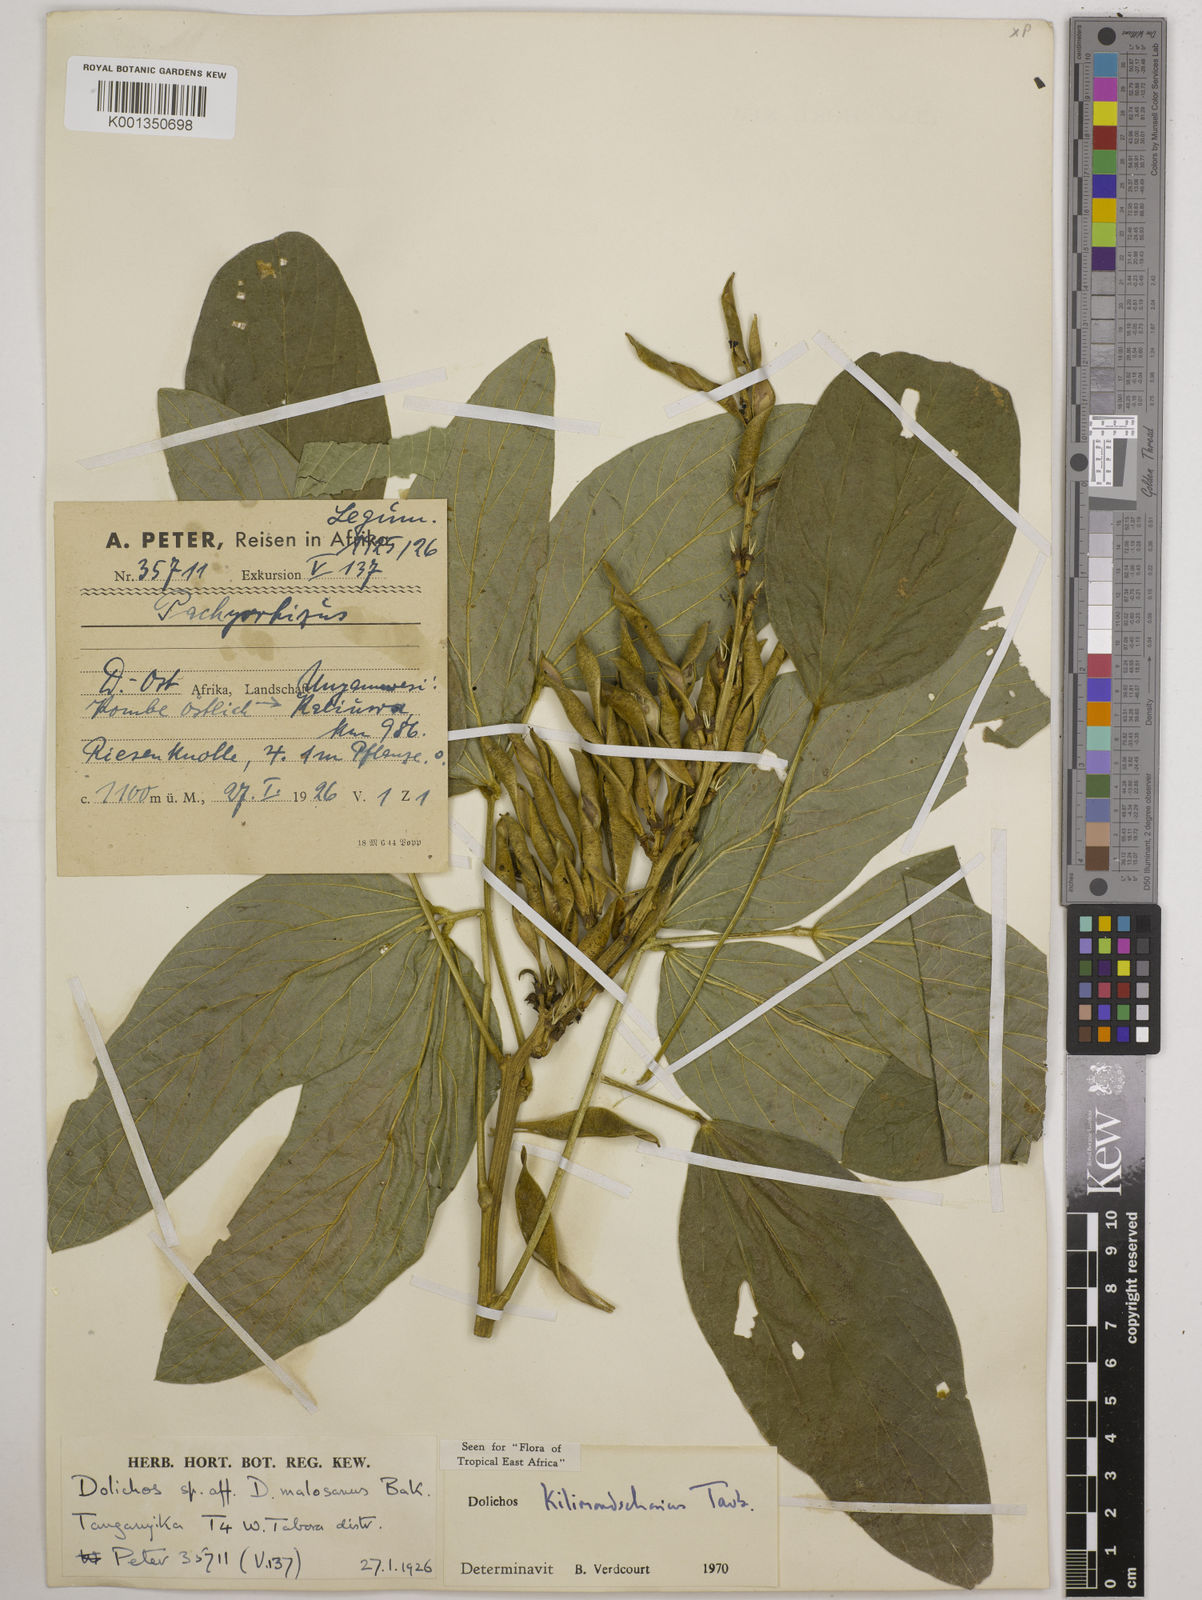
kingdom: Plantae
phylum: Tracheophyta
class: Magnoliopsida
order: Fabales
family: Fabaceae
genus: Dolichos
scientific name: Dolichos kilimandscharicus
